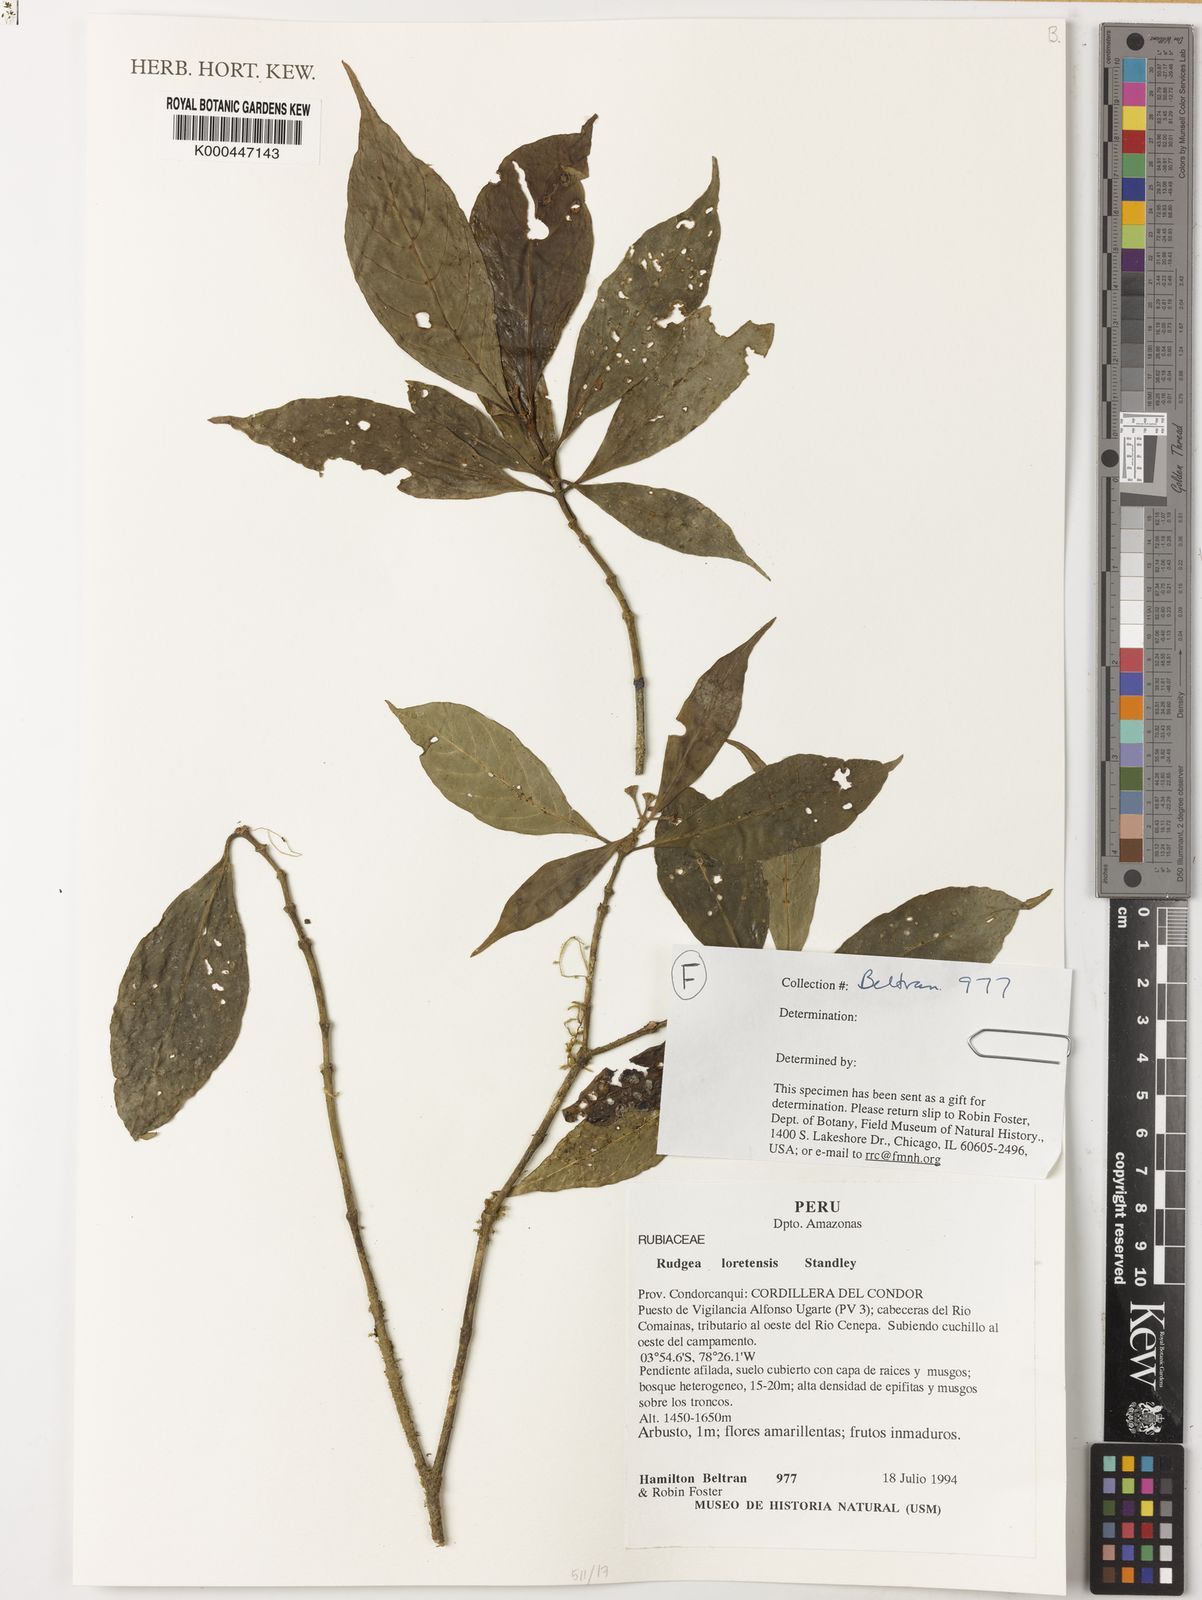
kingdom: Plantae
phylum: Tracheophyta
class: Magnoliopsida
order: Gentianales
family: Rubiaceae
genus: Rudgea
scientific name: Rudgea loretensis
